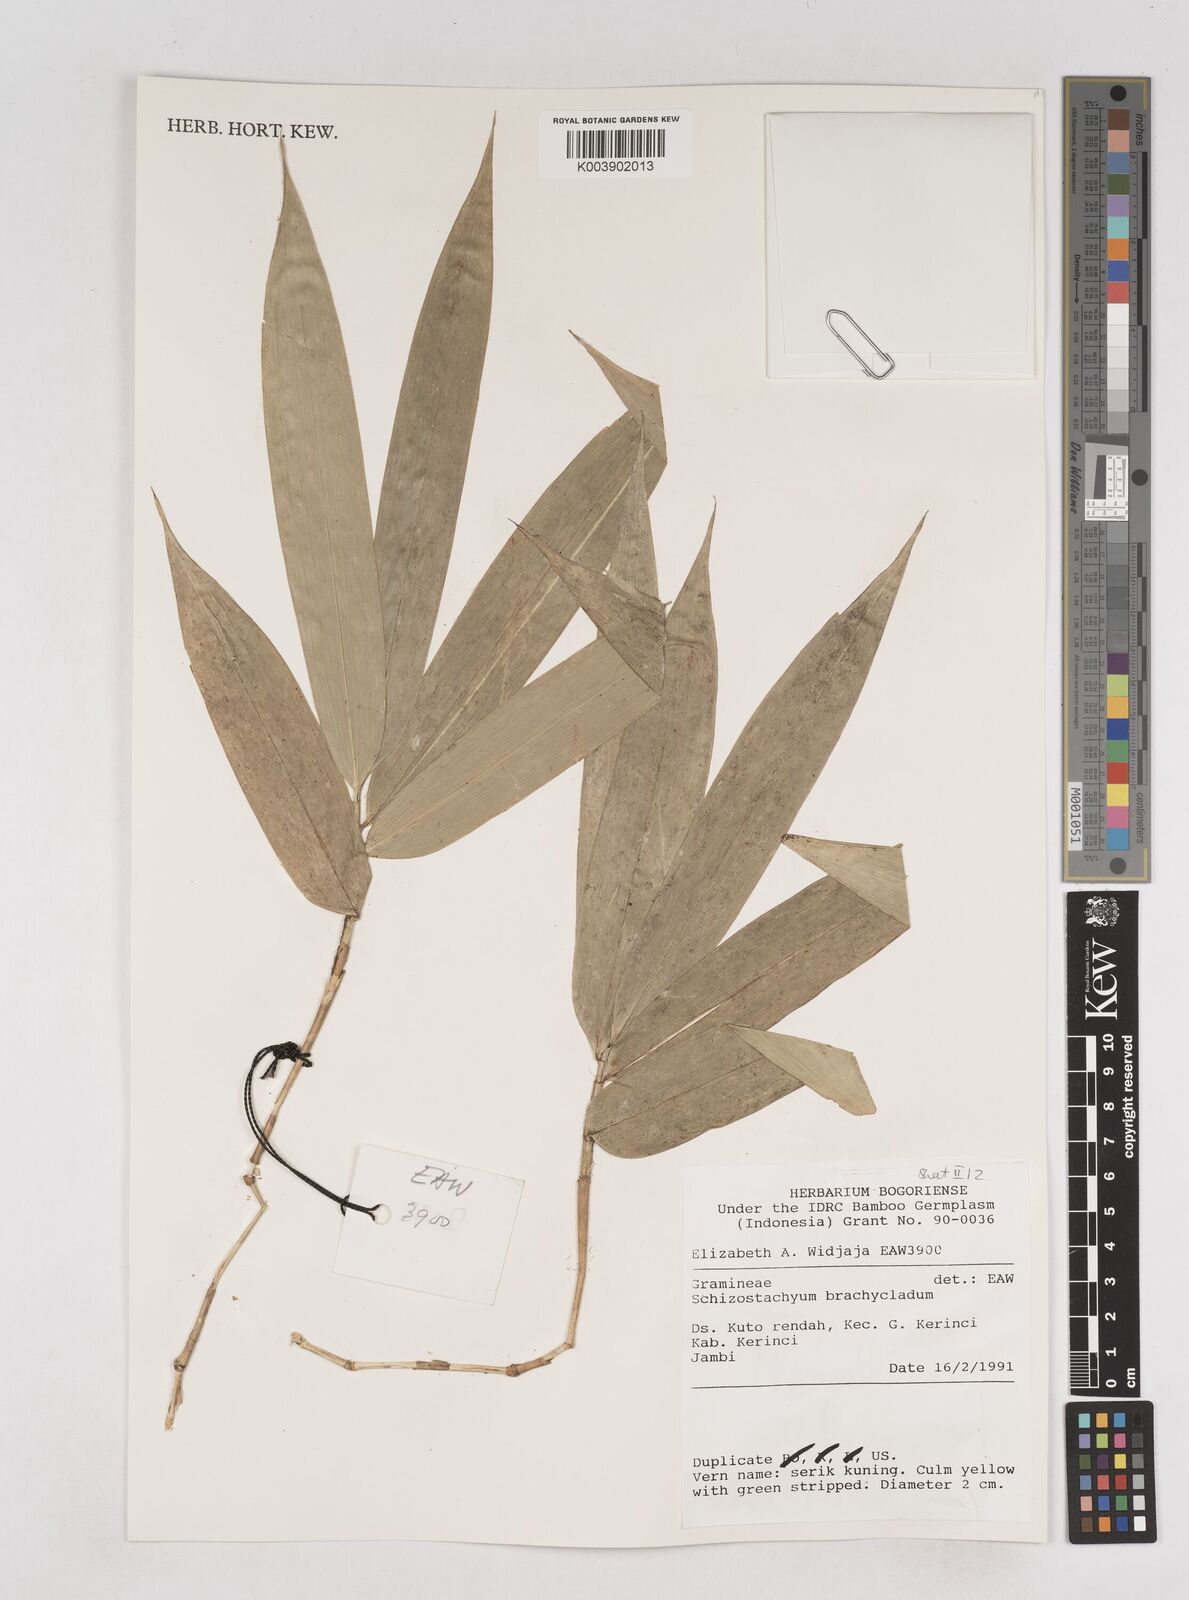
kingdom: Plantae
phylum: Tracheophyta
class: Liliopsida
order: Poales
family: Poaceae
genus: Schizostachyum
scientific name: Schizostachyum brachycladum
